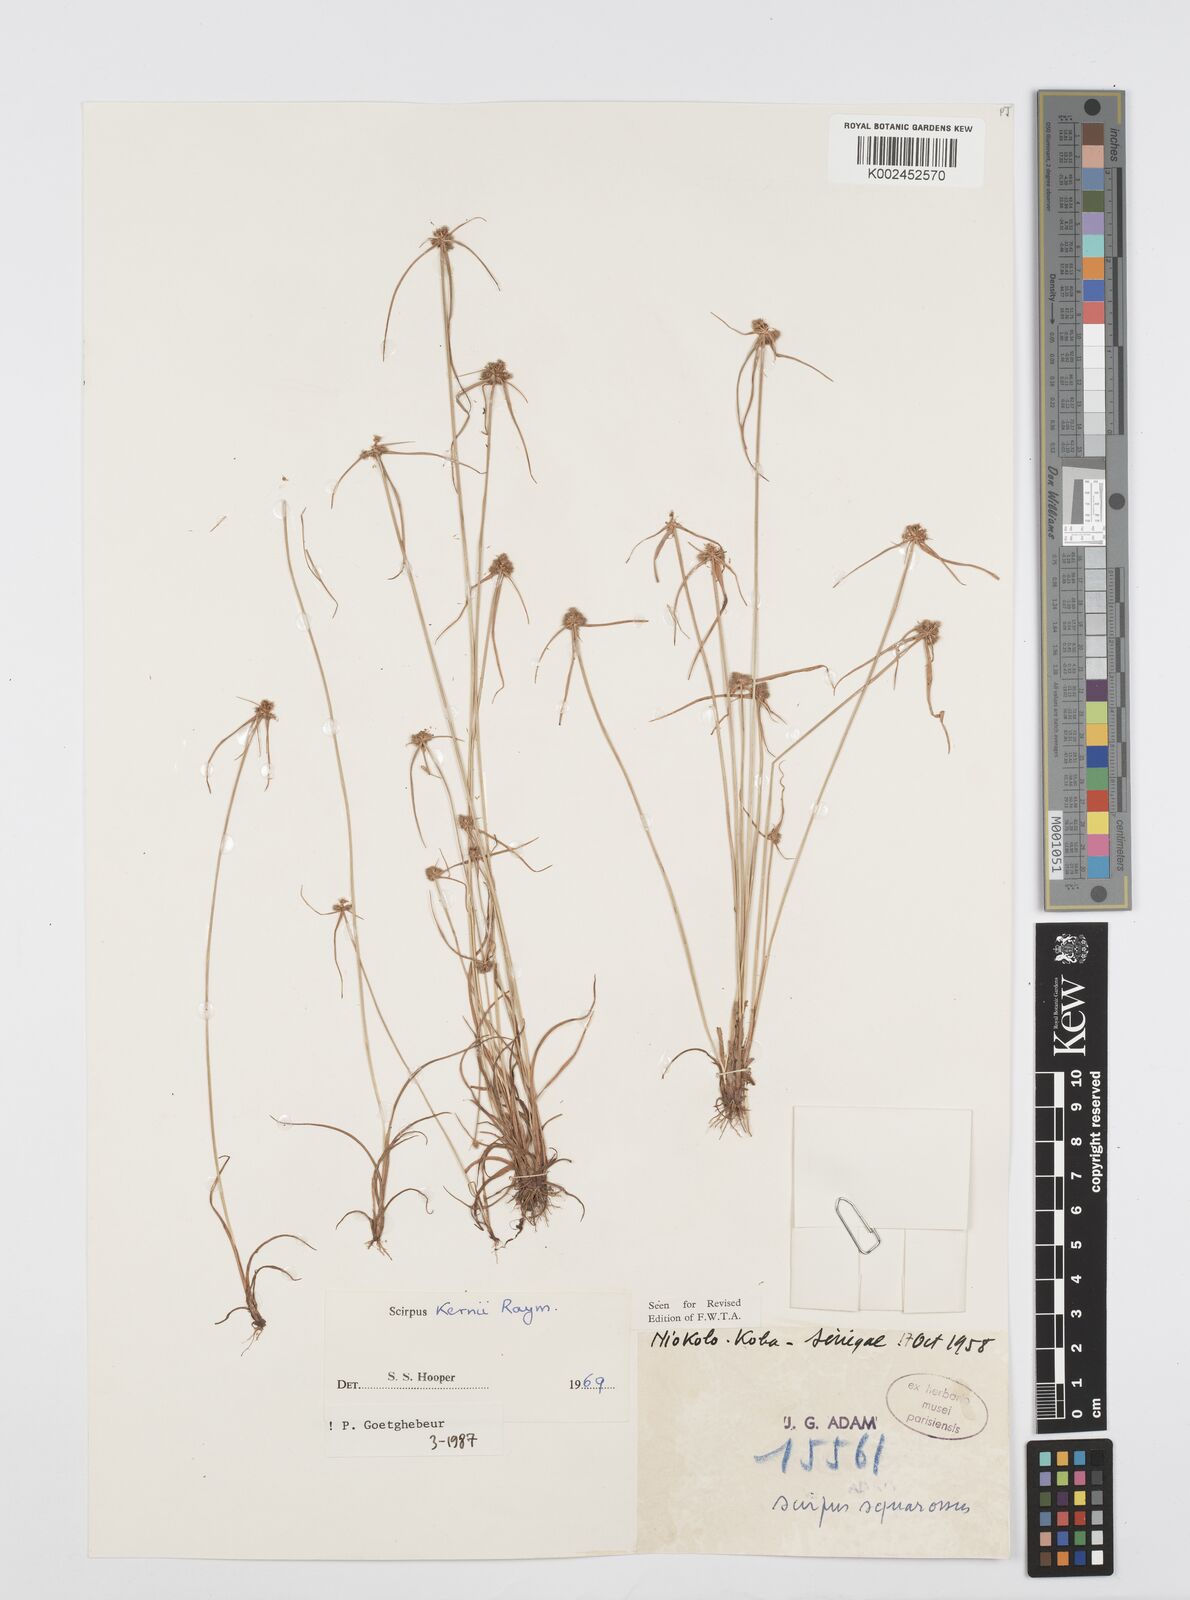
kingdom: Plantae
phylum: Tracheophyta
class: Liliopsida
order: Poales
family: Cyperaceae
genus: Cyperus
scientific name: Cyperus kernii
